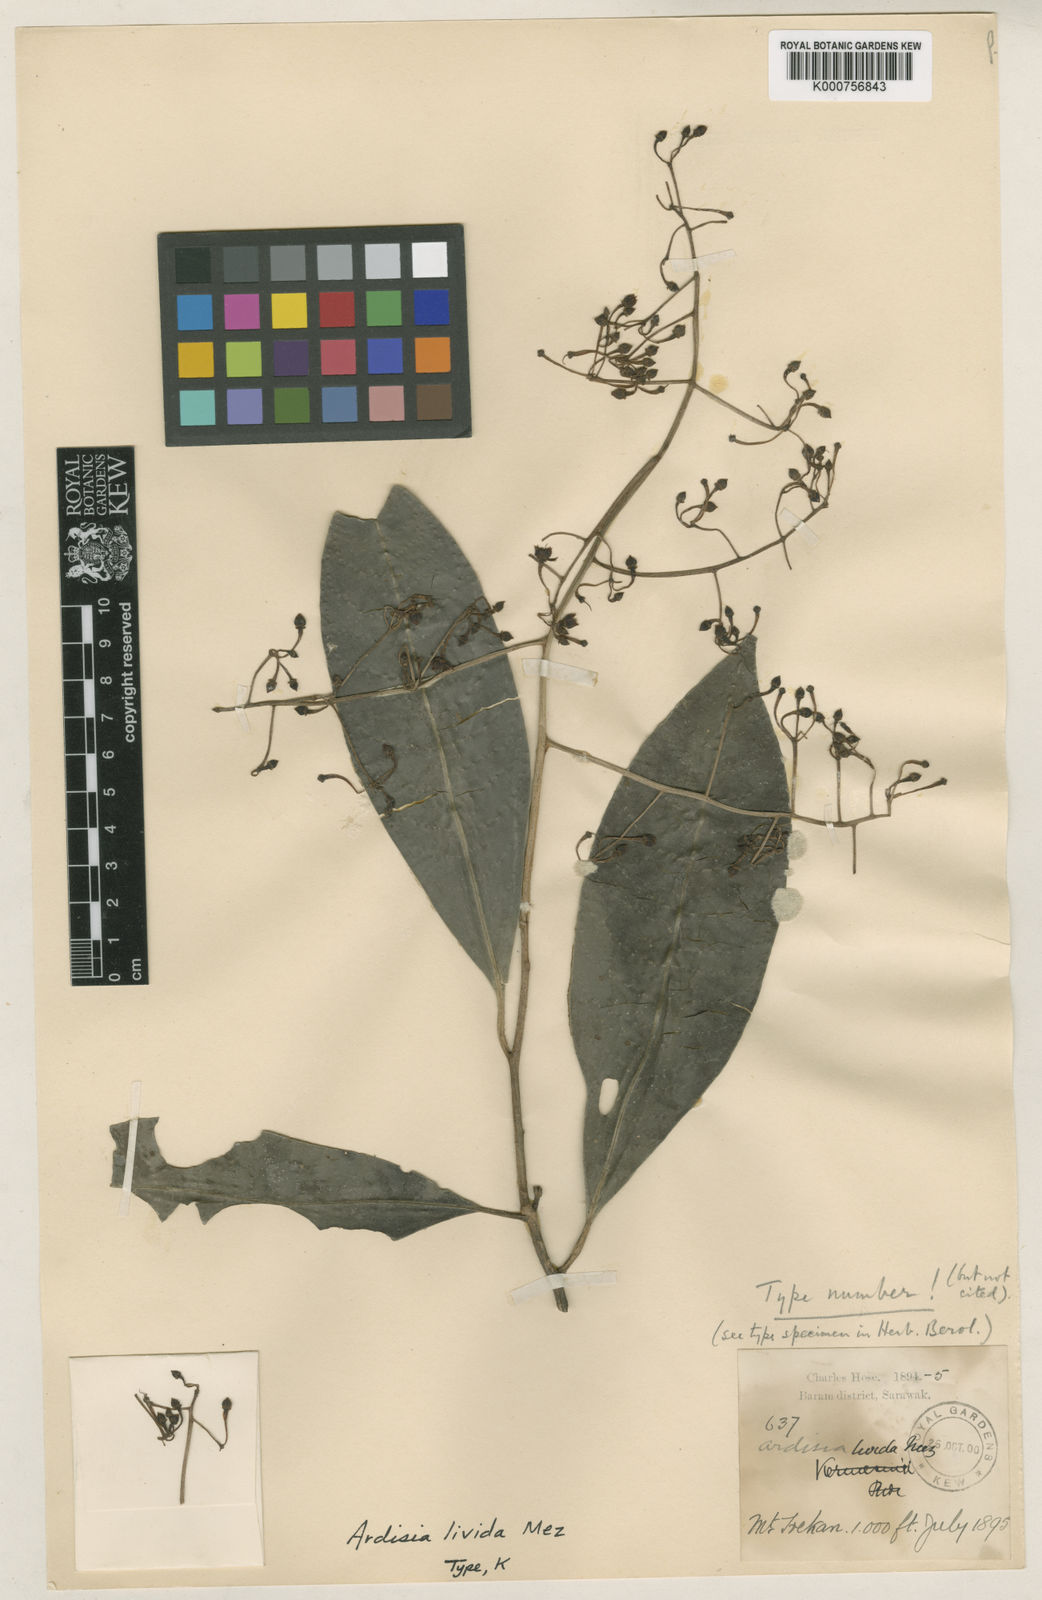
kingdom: Plantae
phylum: Tracheophyta
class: Magnoliopsida
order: Ericales
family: Primulaceae
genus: Ardisia
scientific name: Ardisia livida
